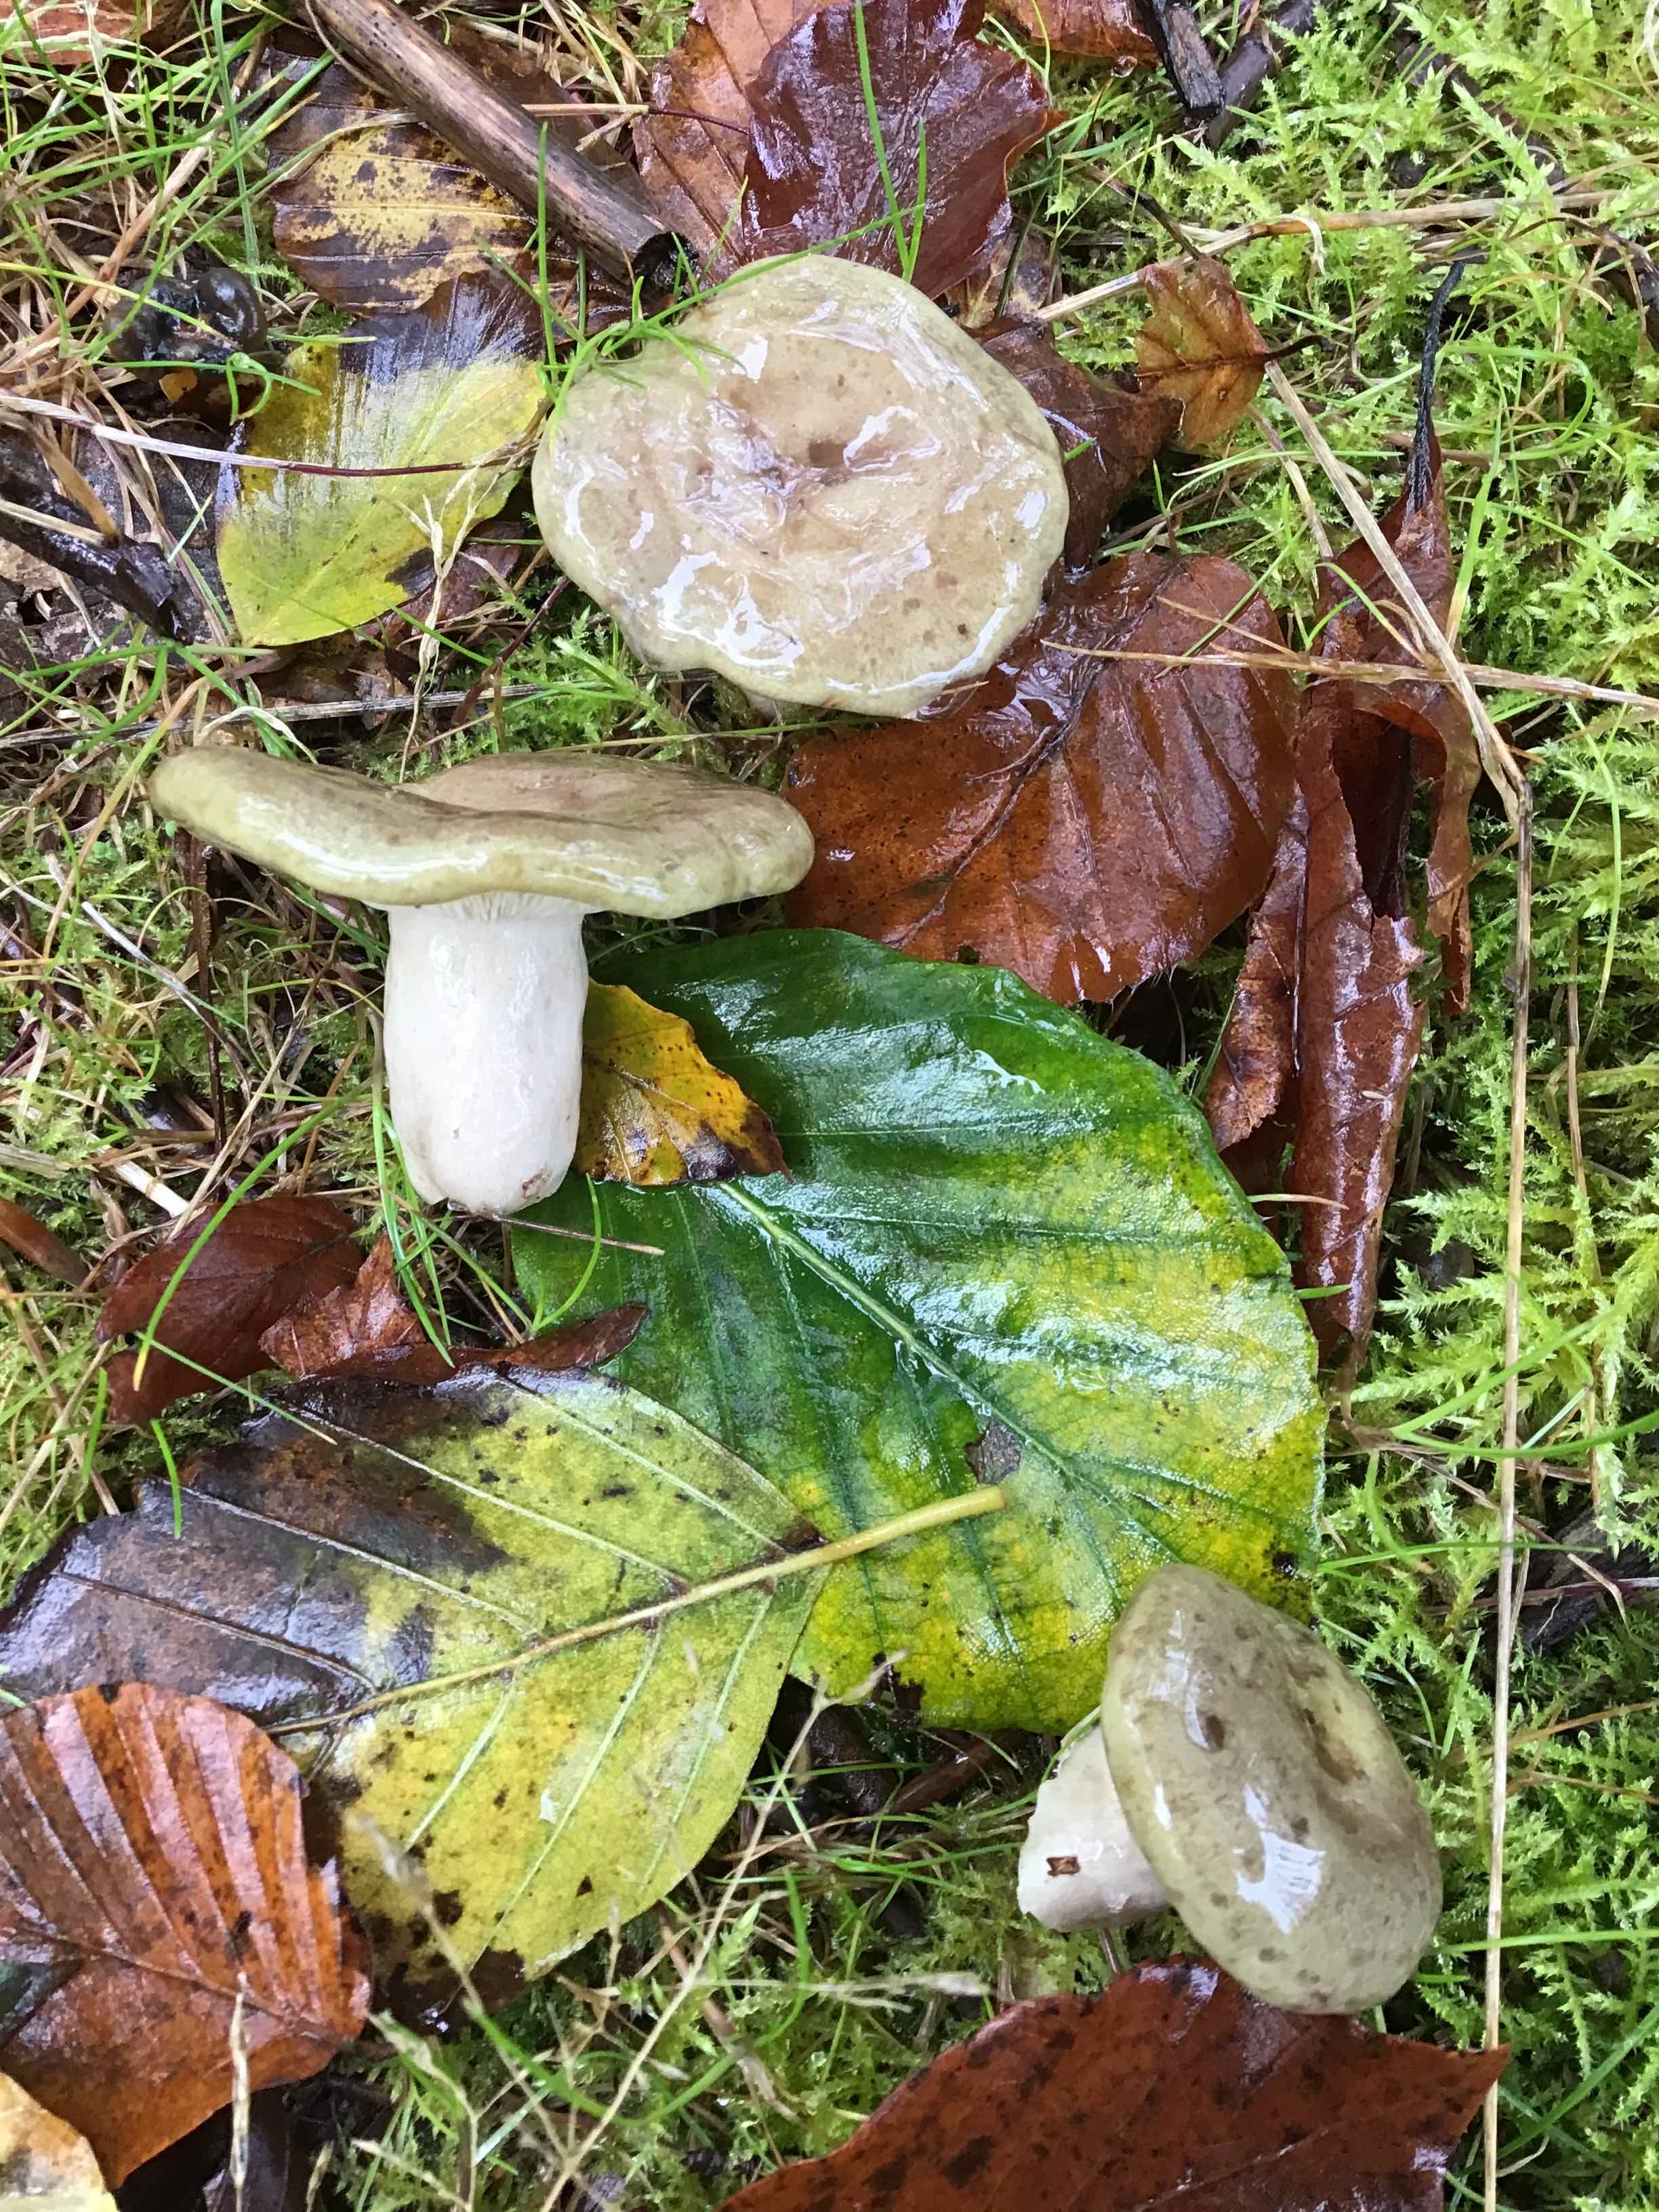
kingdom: Fungi
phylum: Basidiomycota
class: Agaricomycetes
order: Russulales
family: Russulaceae
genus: Lactarius
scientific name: Lactarius blennius
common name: dråbeplettet mælkehat
